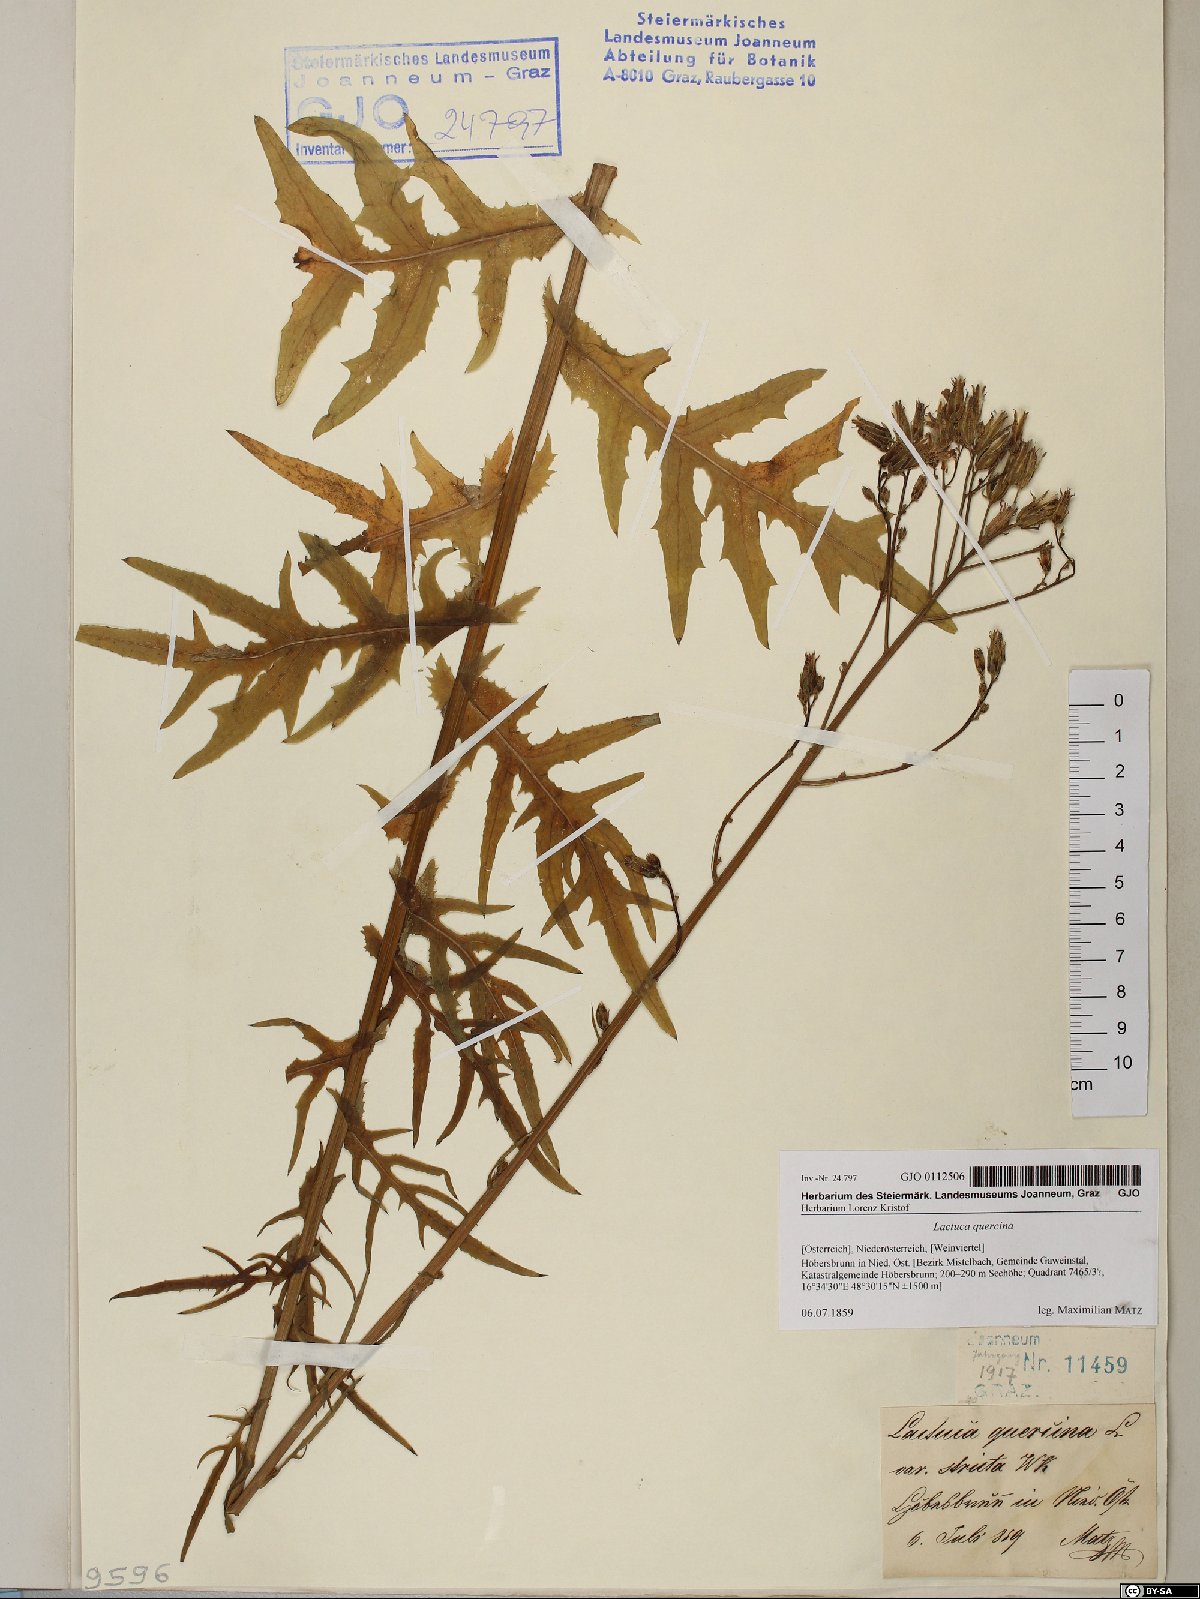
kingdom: Plantae
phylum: Tracheophyta
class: Magnoliopsida
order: Asterales
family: Asteraceae
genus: Lactuca
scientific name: Lactuca quercina
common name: Wild lettuce
